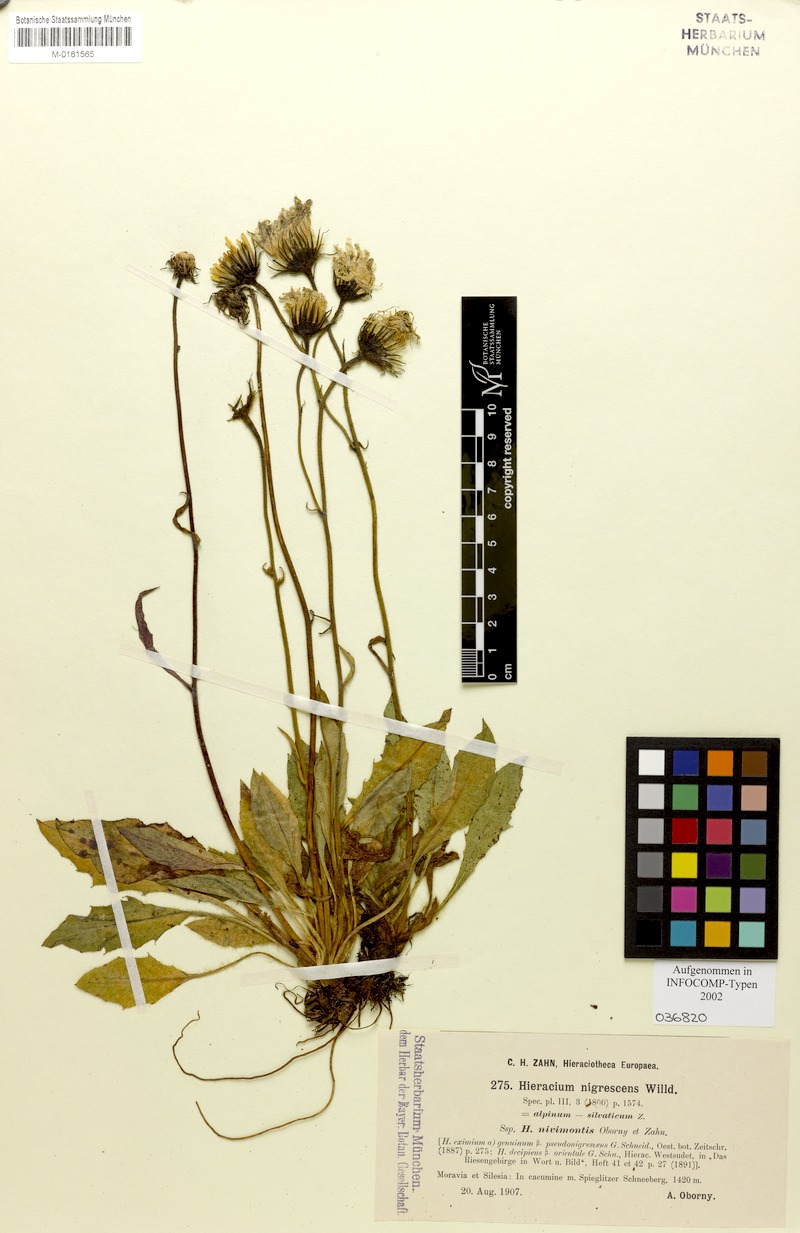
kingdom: Plantae
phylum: Tracheophyta
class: Magnoliopsida
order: Asterales
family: Asteraceae
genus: Hieracium
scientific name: Hieracium nigrescens
